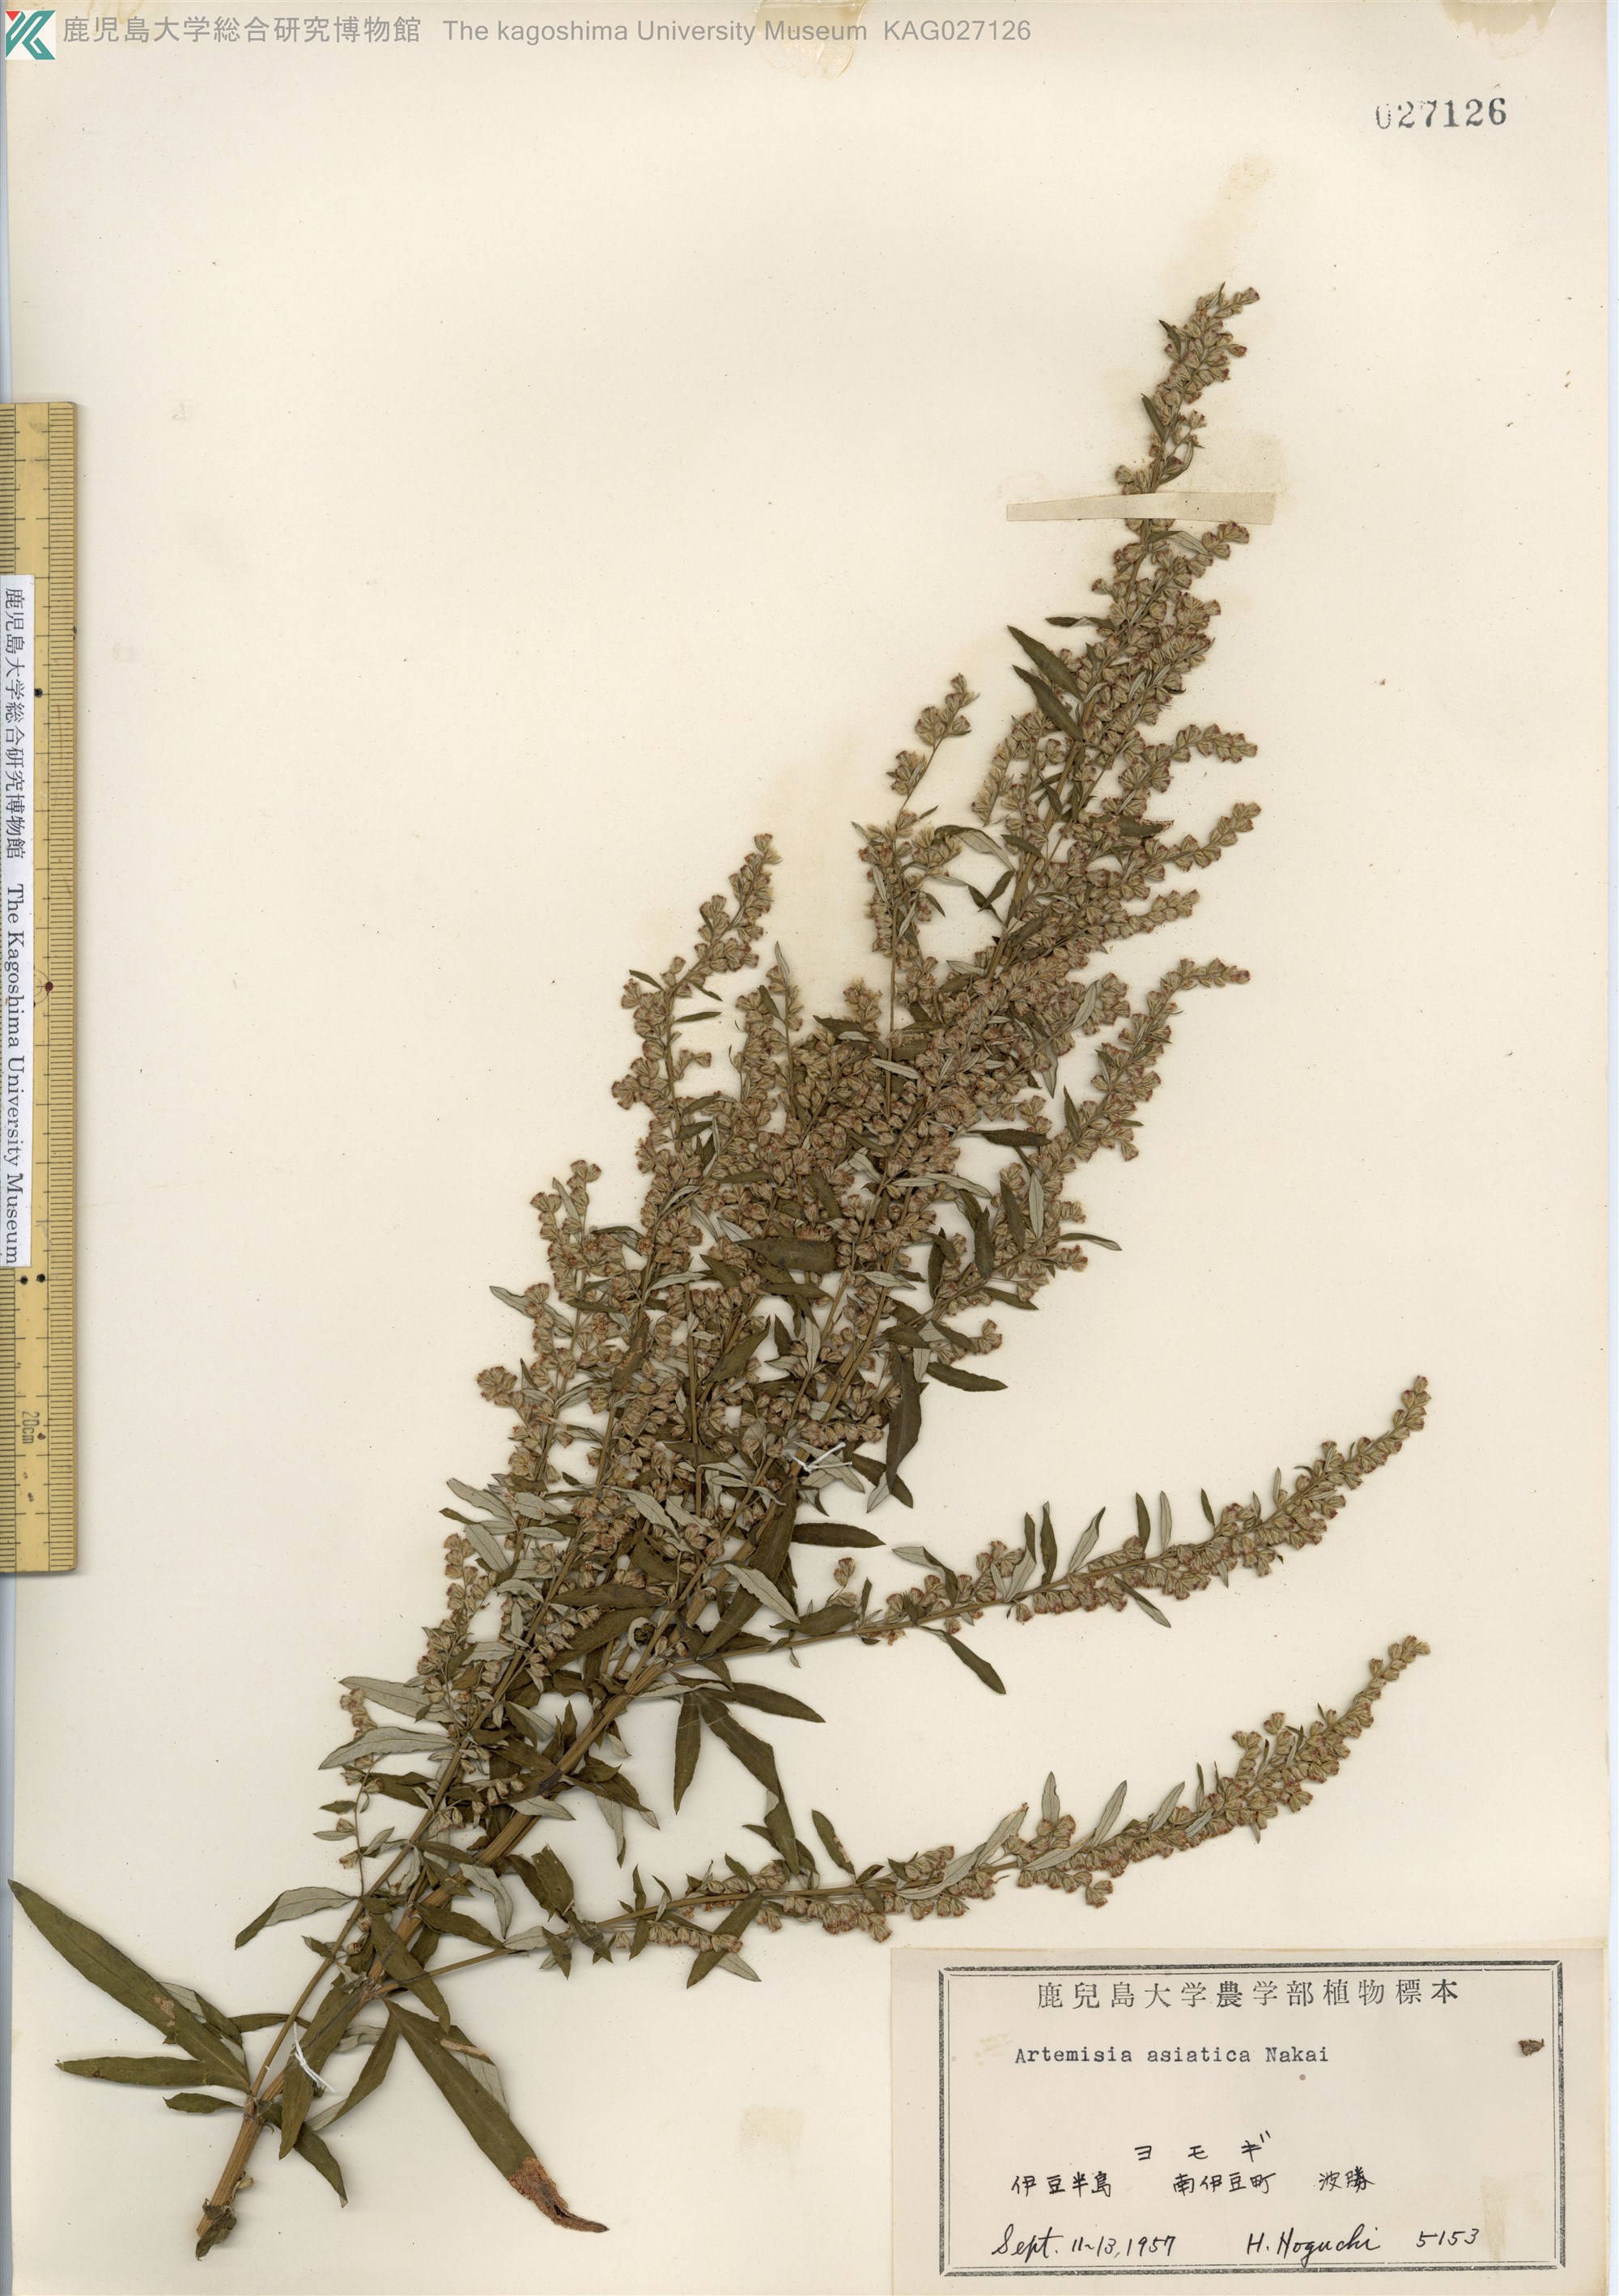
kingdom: Plantae
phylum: Tracheophyta
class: Magnoliopsida
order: Asterales
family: Asteraceae
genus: Artemisia
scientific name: Artemisia indica
